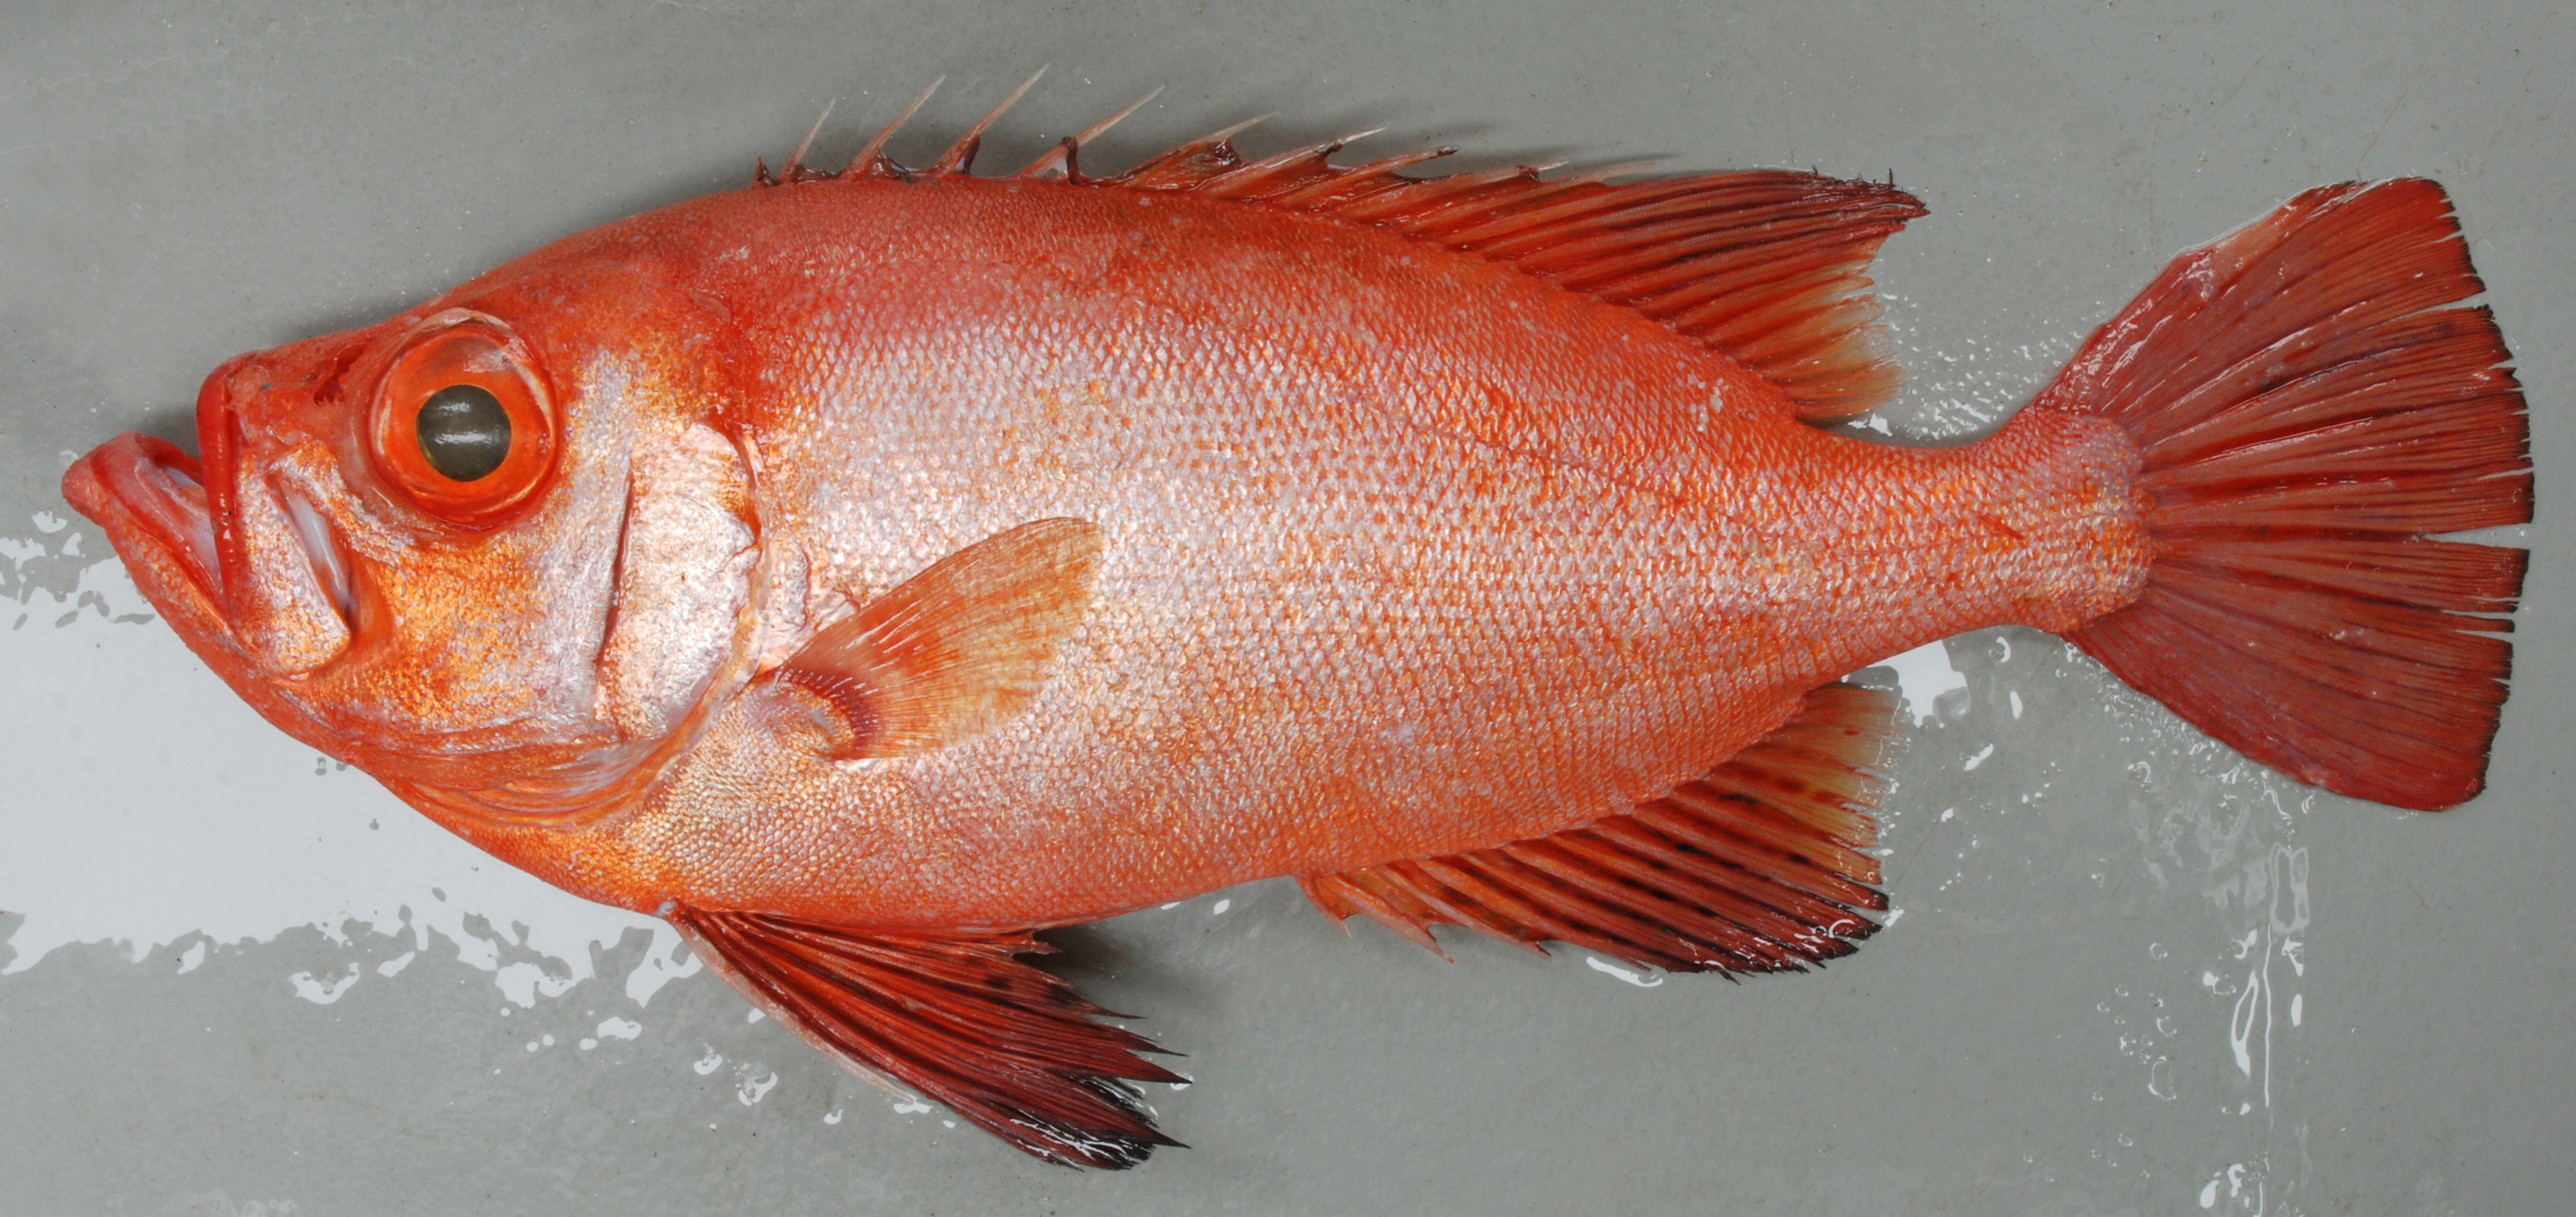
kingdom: Animalia
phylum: Chordata
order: Perciformes
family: Priacanthidae
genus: Cookeolus
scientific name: Cookeolus japonicus
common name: Bulleye
